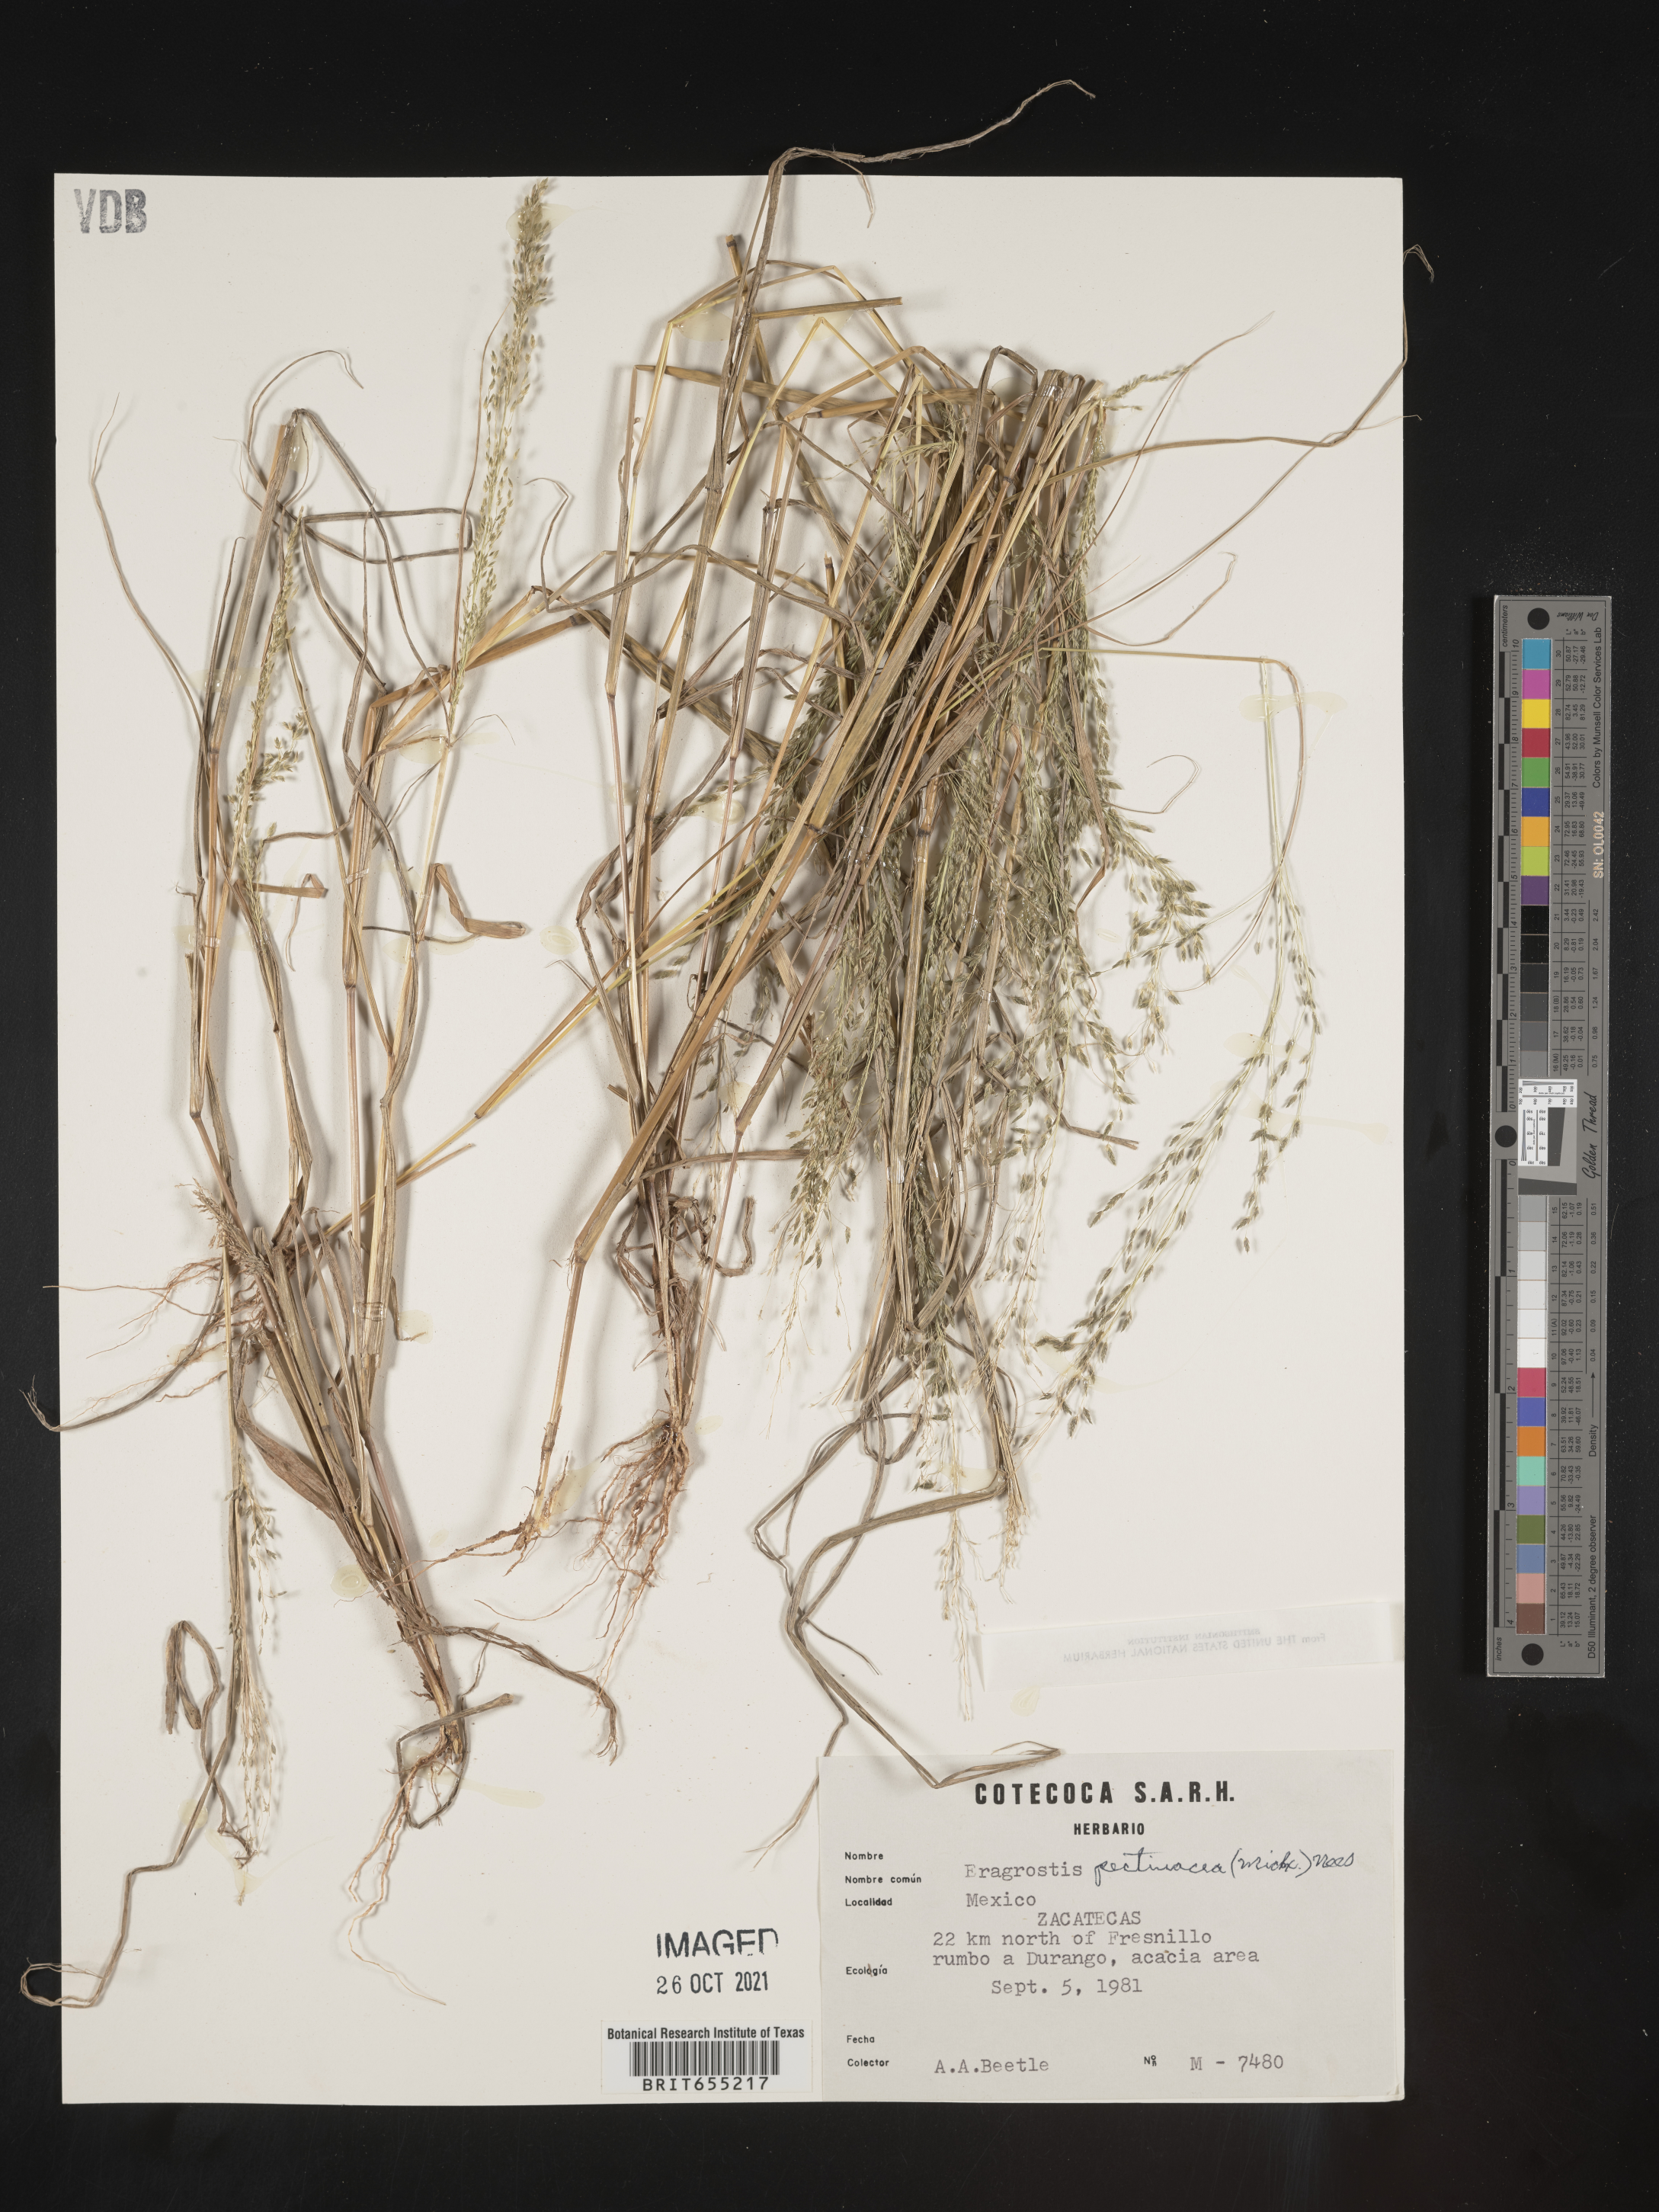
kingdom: Plantae
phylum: Tracheophyta
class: Liliopsida
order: Poales
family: Poaceae
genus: Eragrostis
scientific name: Eragrostis
